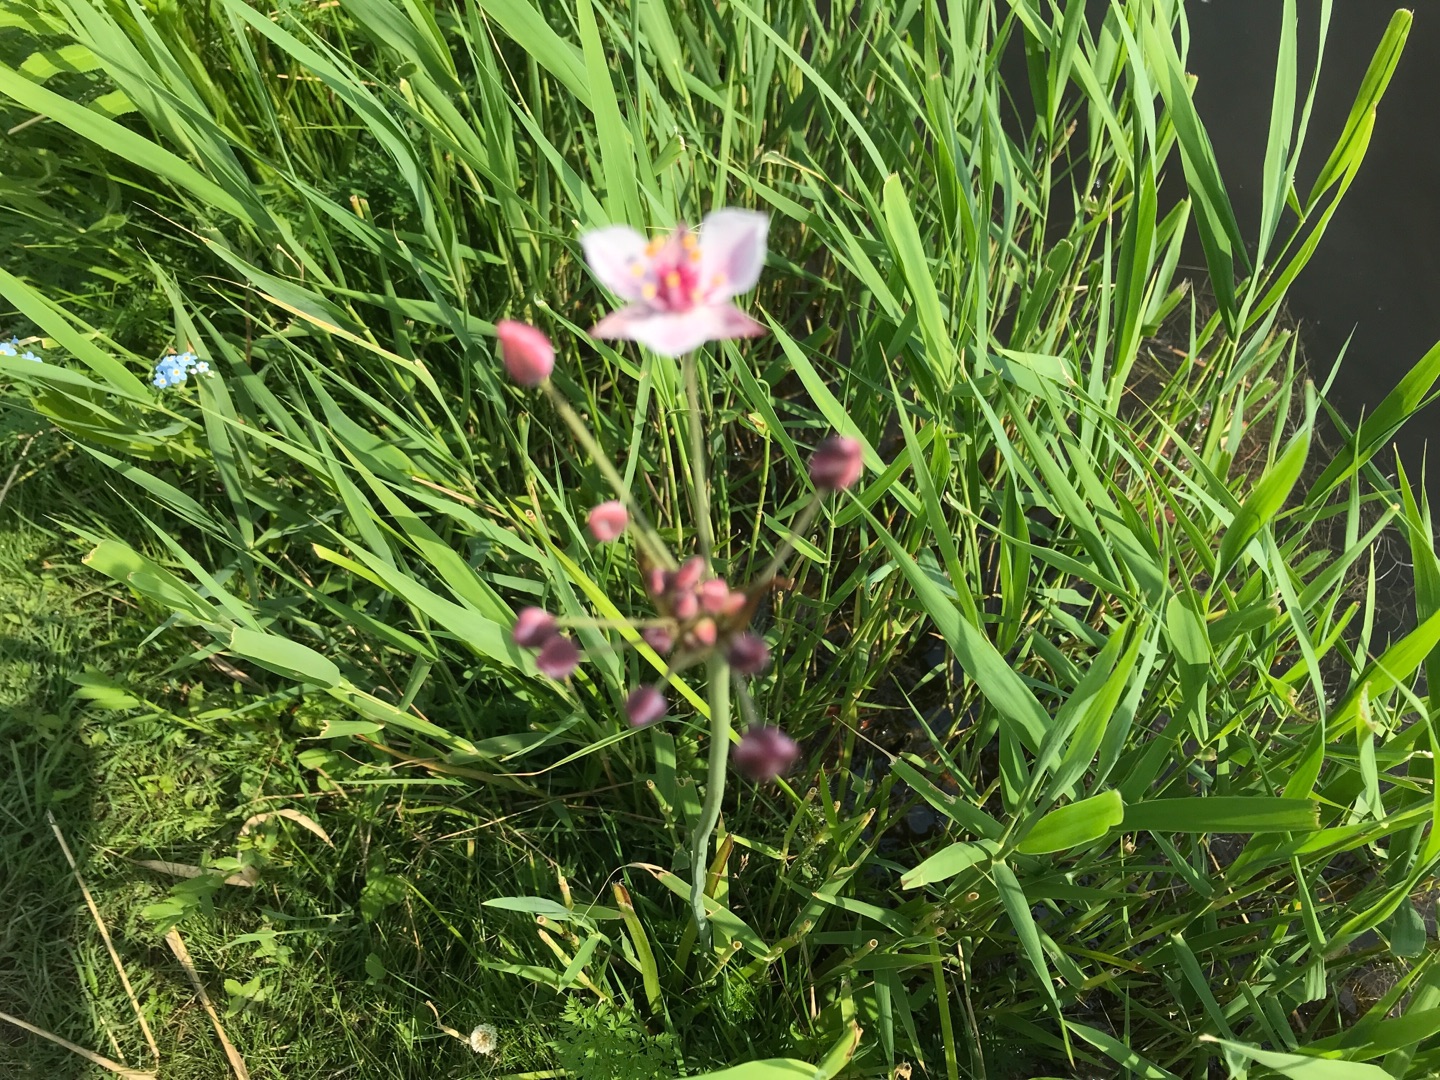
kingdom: Plantae
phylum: Tracheophyta
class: Liliopsida
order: Alismatales
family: Butomaceae
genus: Butomus
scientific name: Butomus umbellatus
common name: Brudelys
